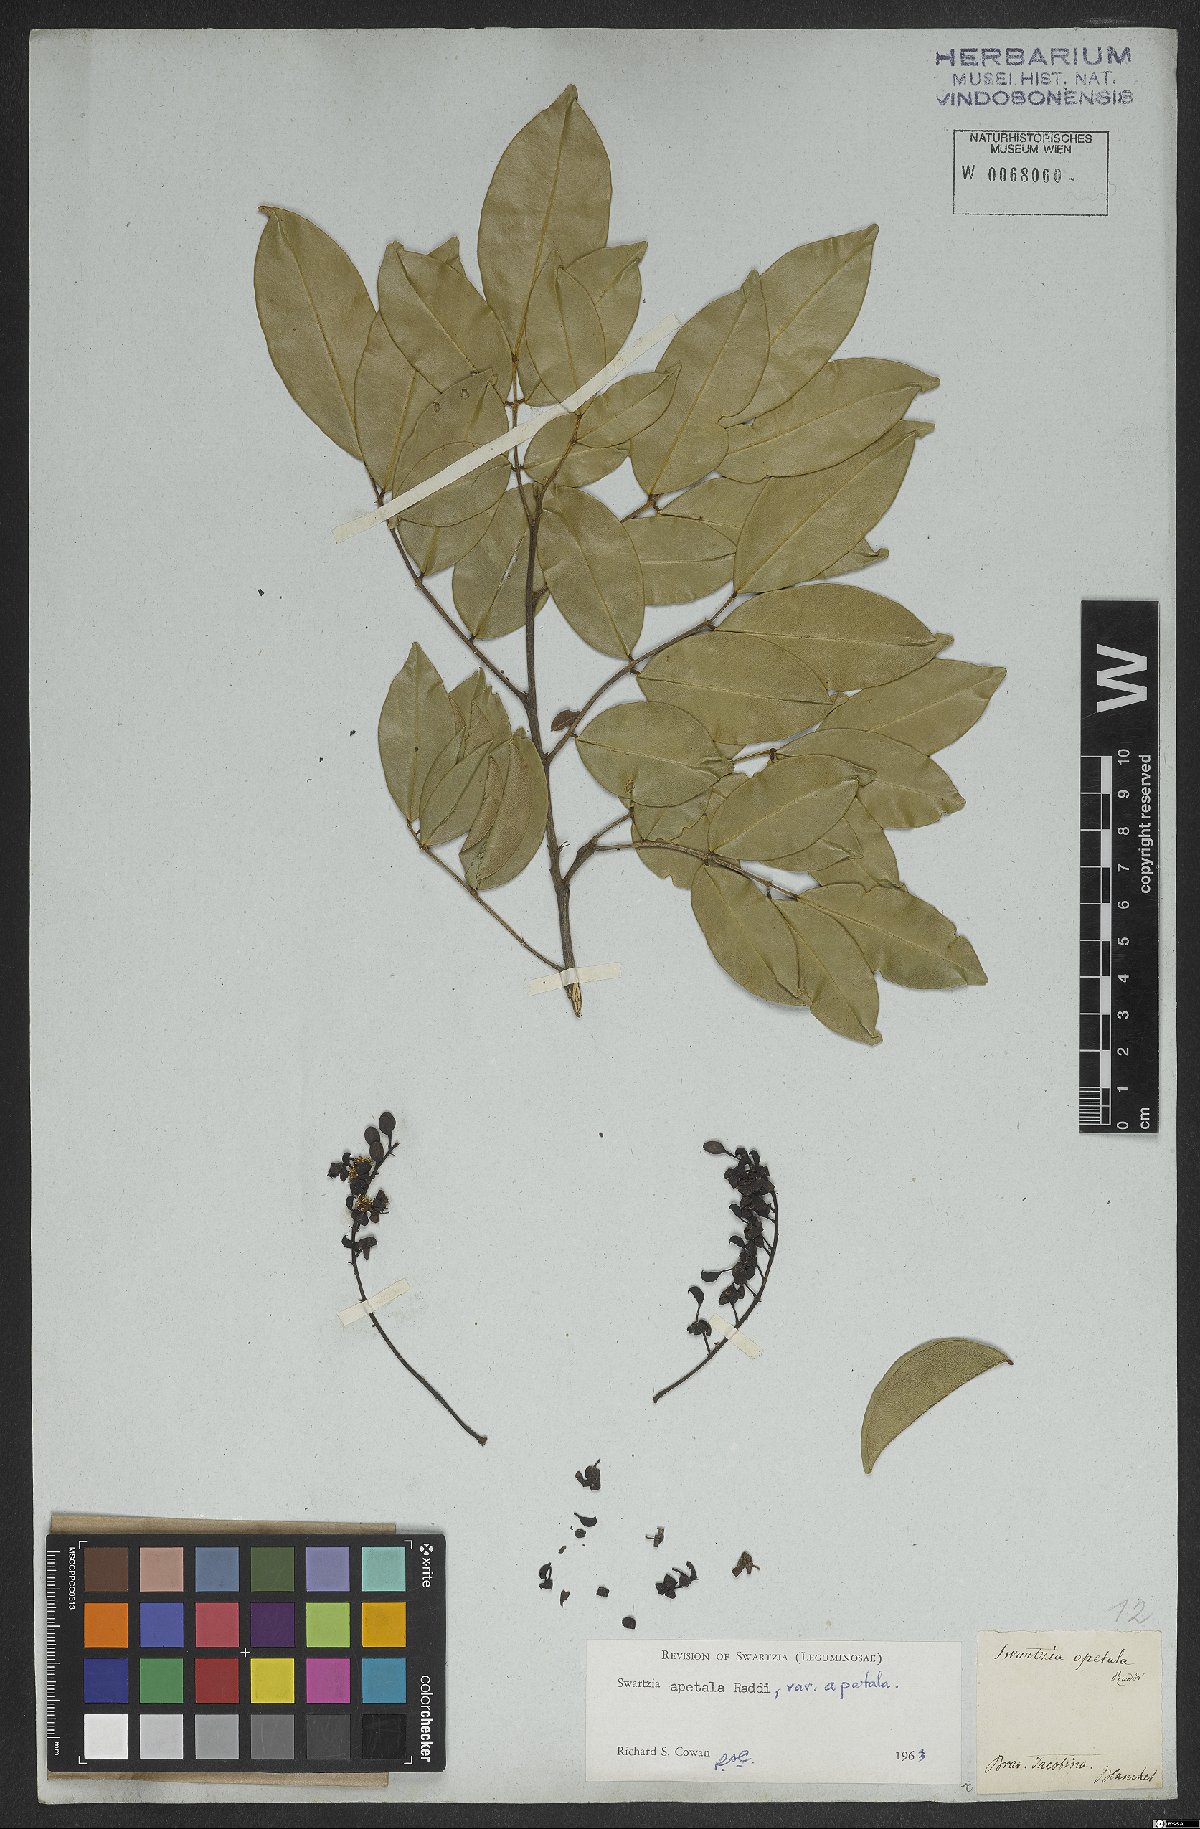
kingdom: Plantae
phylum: Tracheophyta
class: Magnoliopsida
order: Fabales
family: Fabaceae
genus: Swartzia
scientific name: Swartzia apetala
